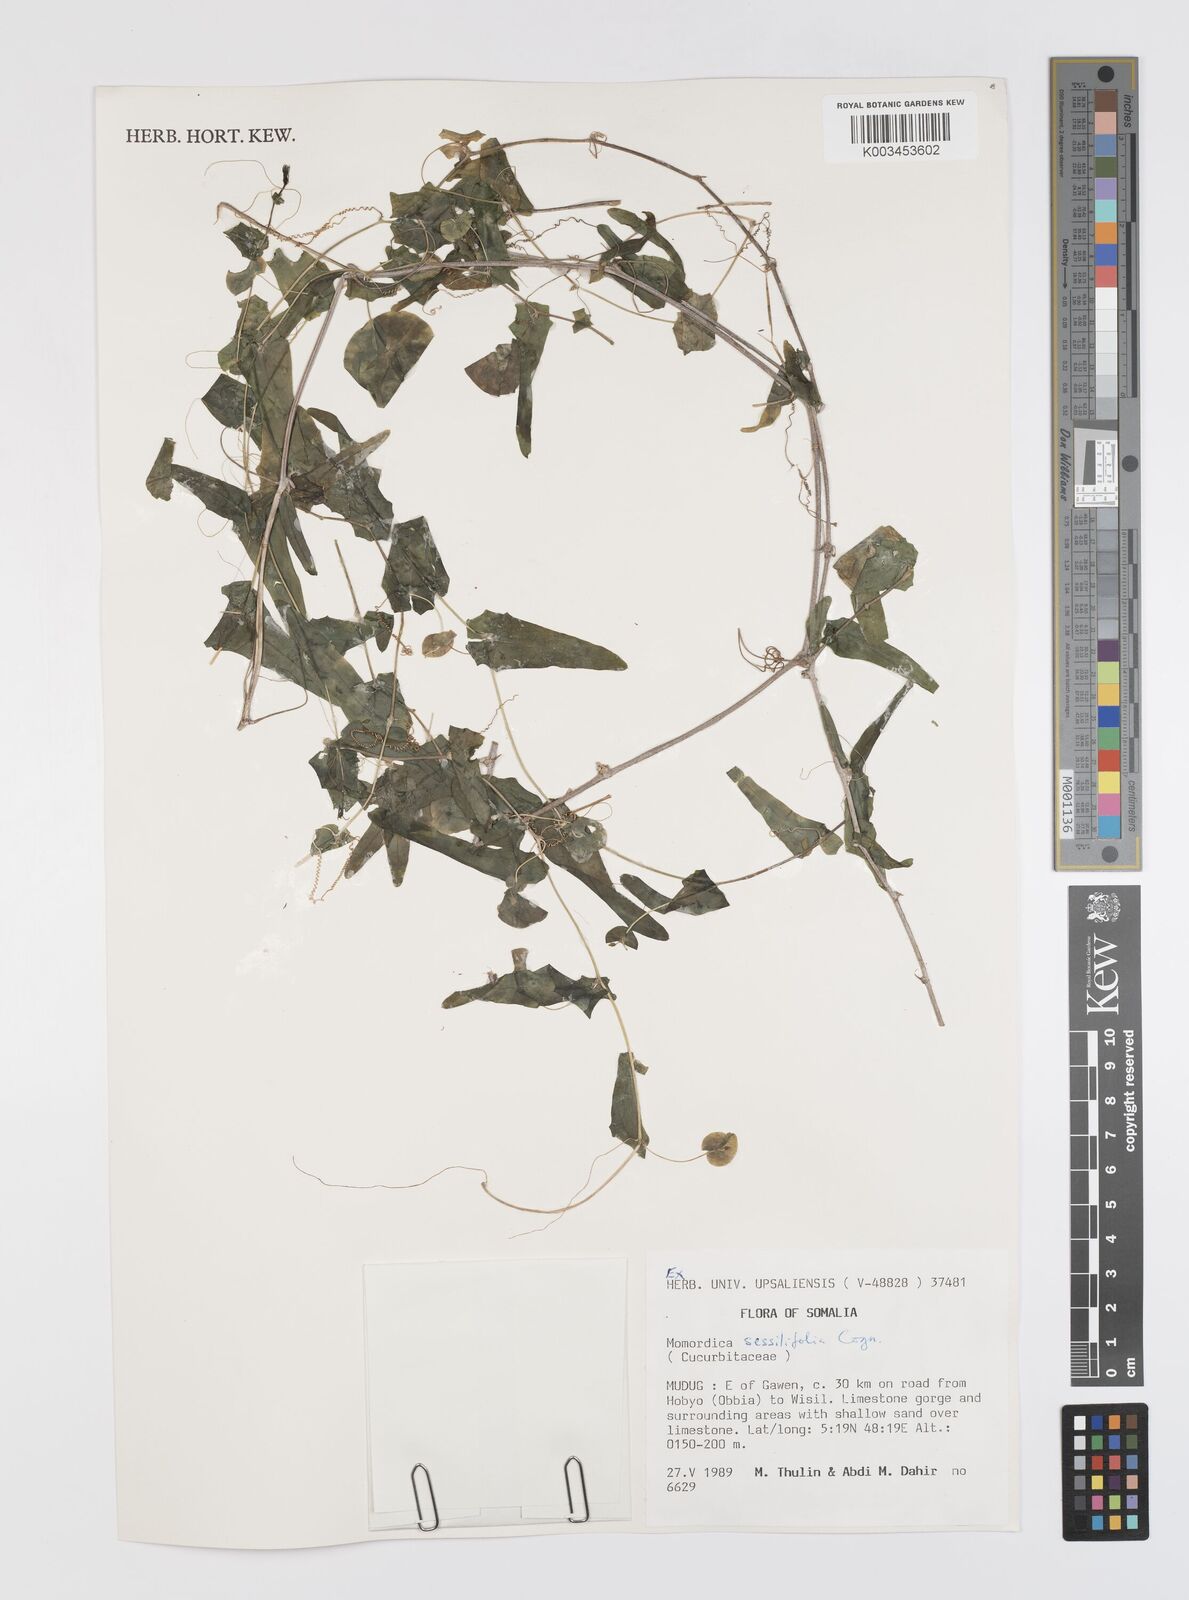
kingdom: Plantae
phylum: Tracheophyta
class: Magnoliopsida
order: Cucurbitales
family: Cucurbitaceae
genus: Momordica
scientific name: Momordica sessilifolia
